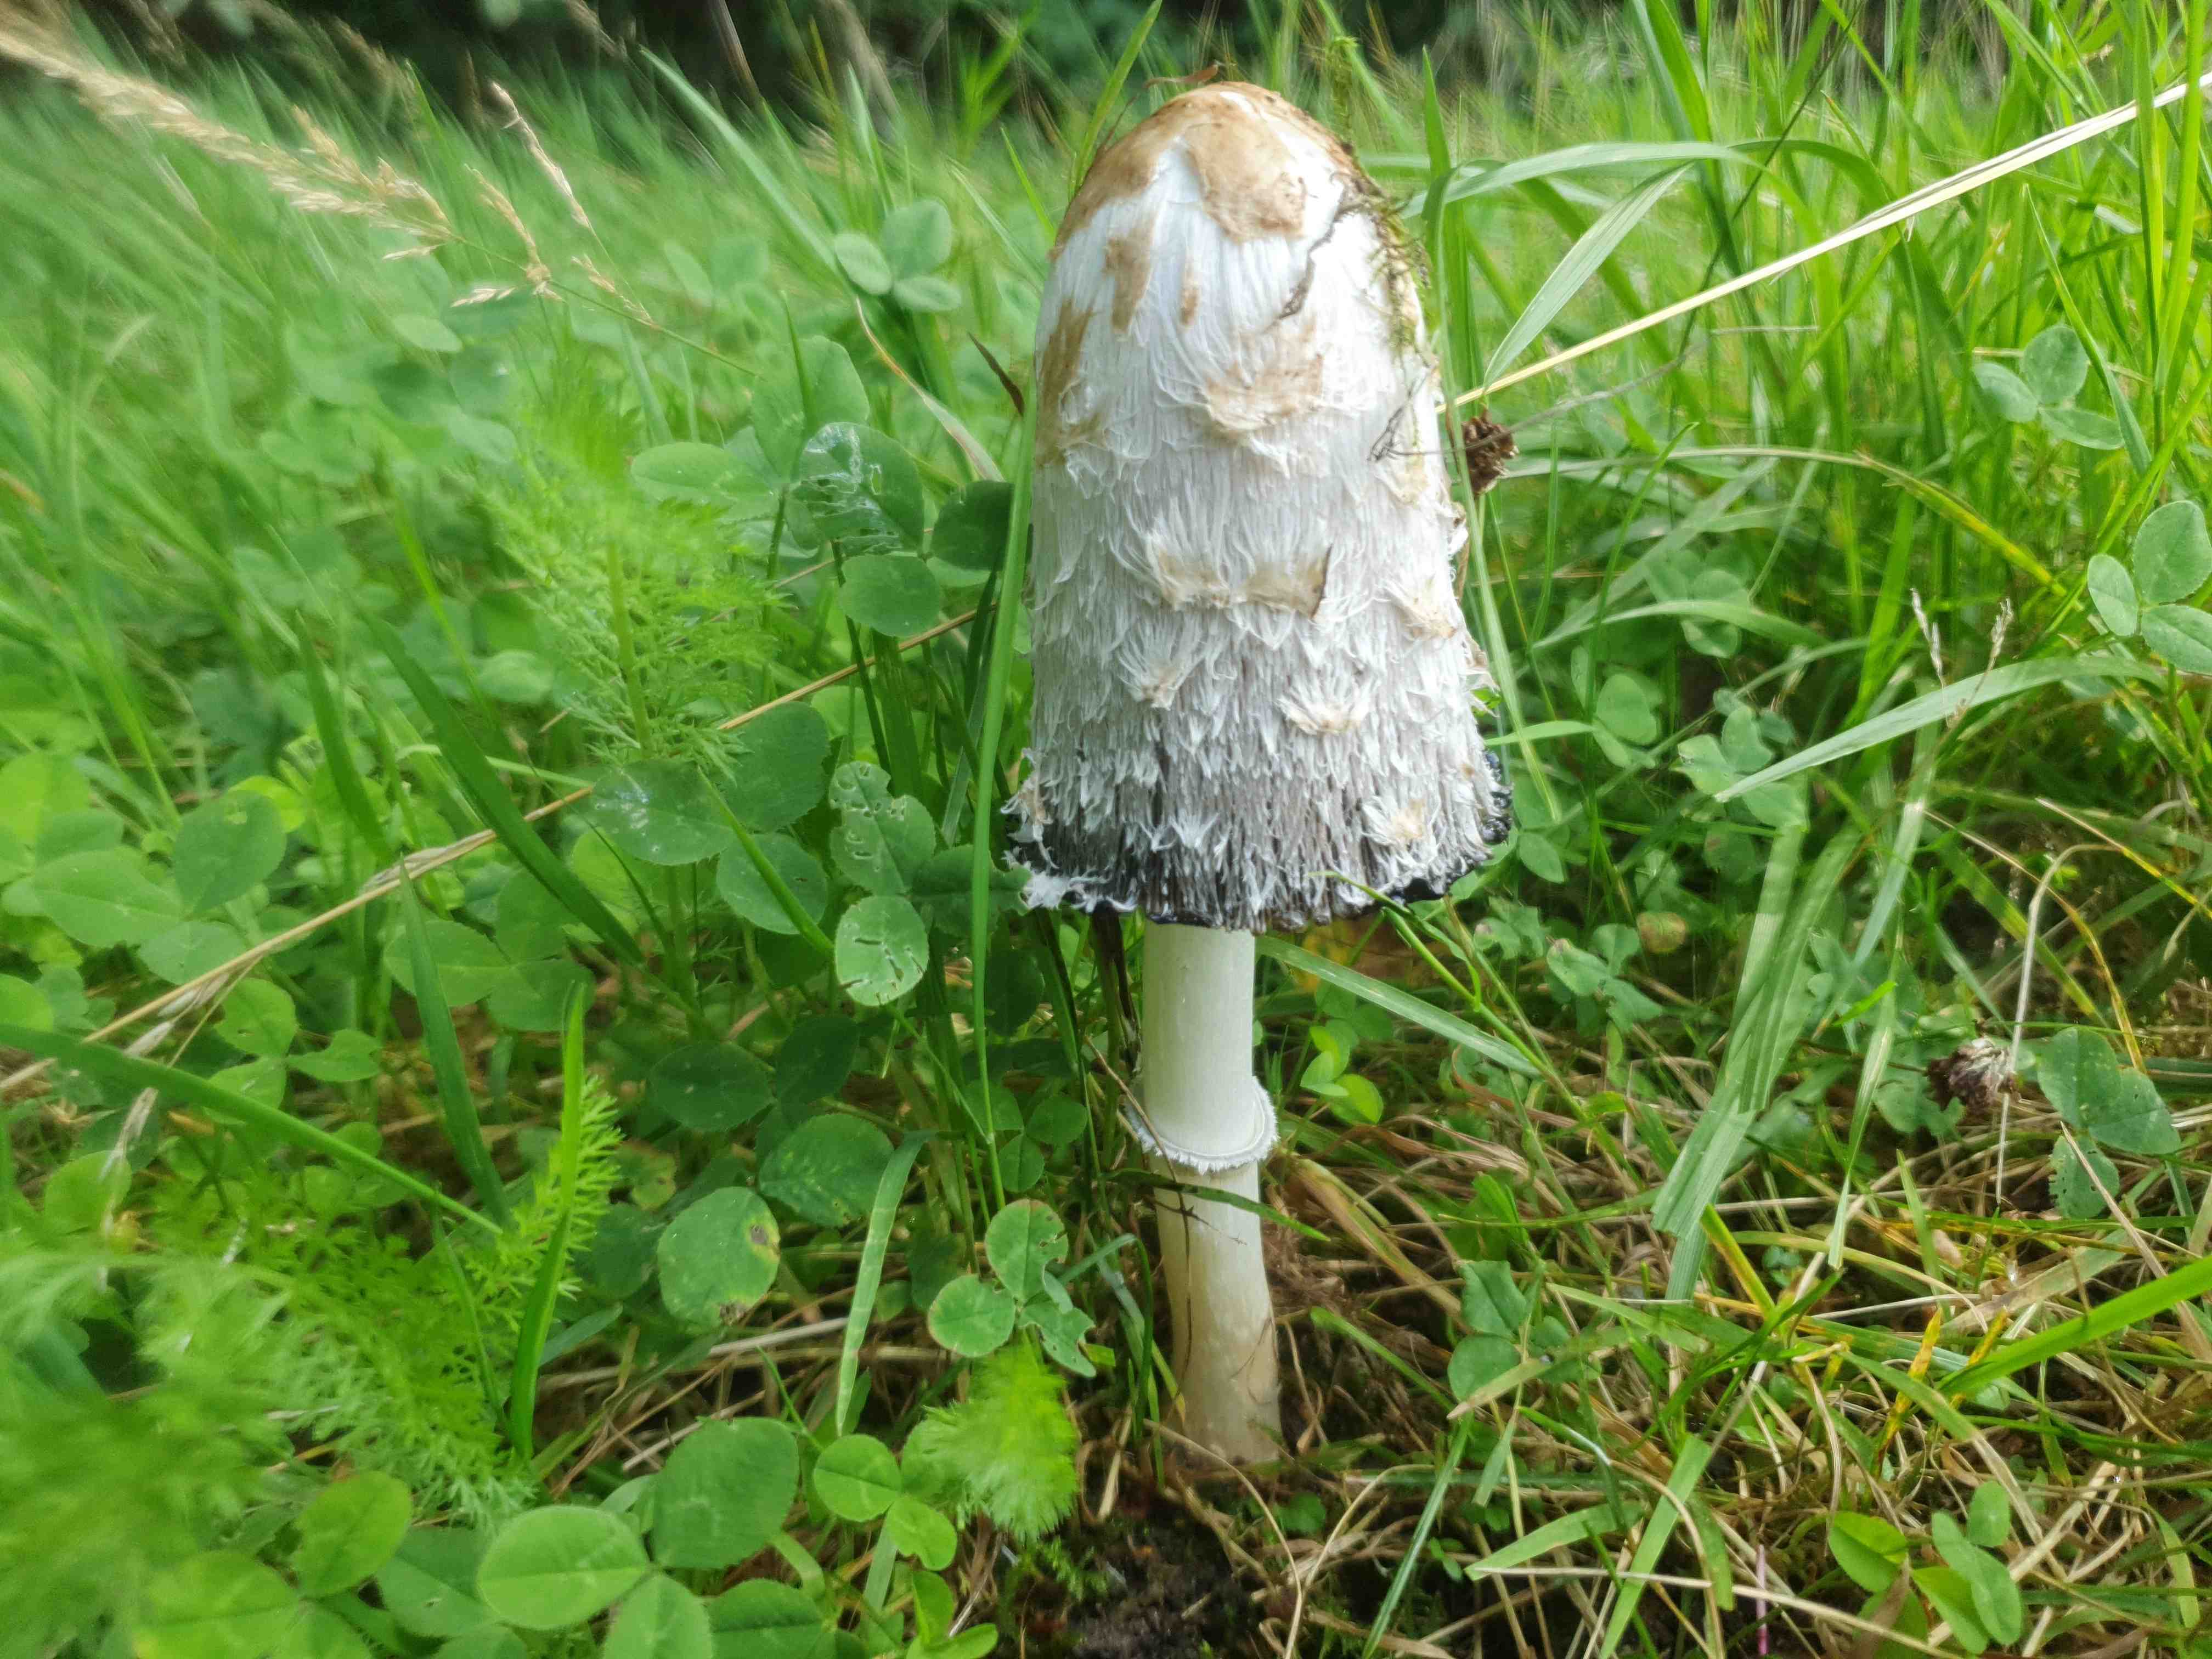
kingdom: Fungi
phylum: Basidiomycota
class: Agaricomycetes
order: Agaricales
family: Agaricaceae
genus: Coprinus
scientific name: Coprinus comatus
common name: stor parykhat
